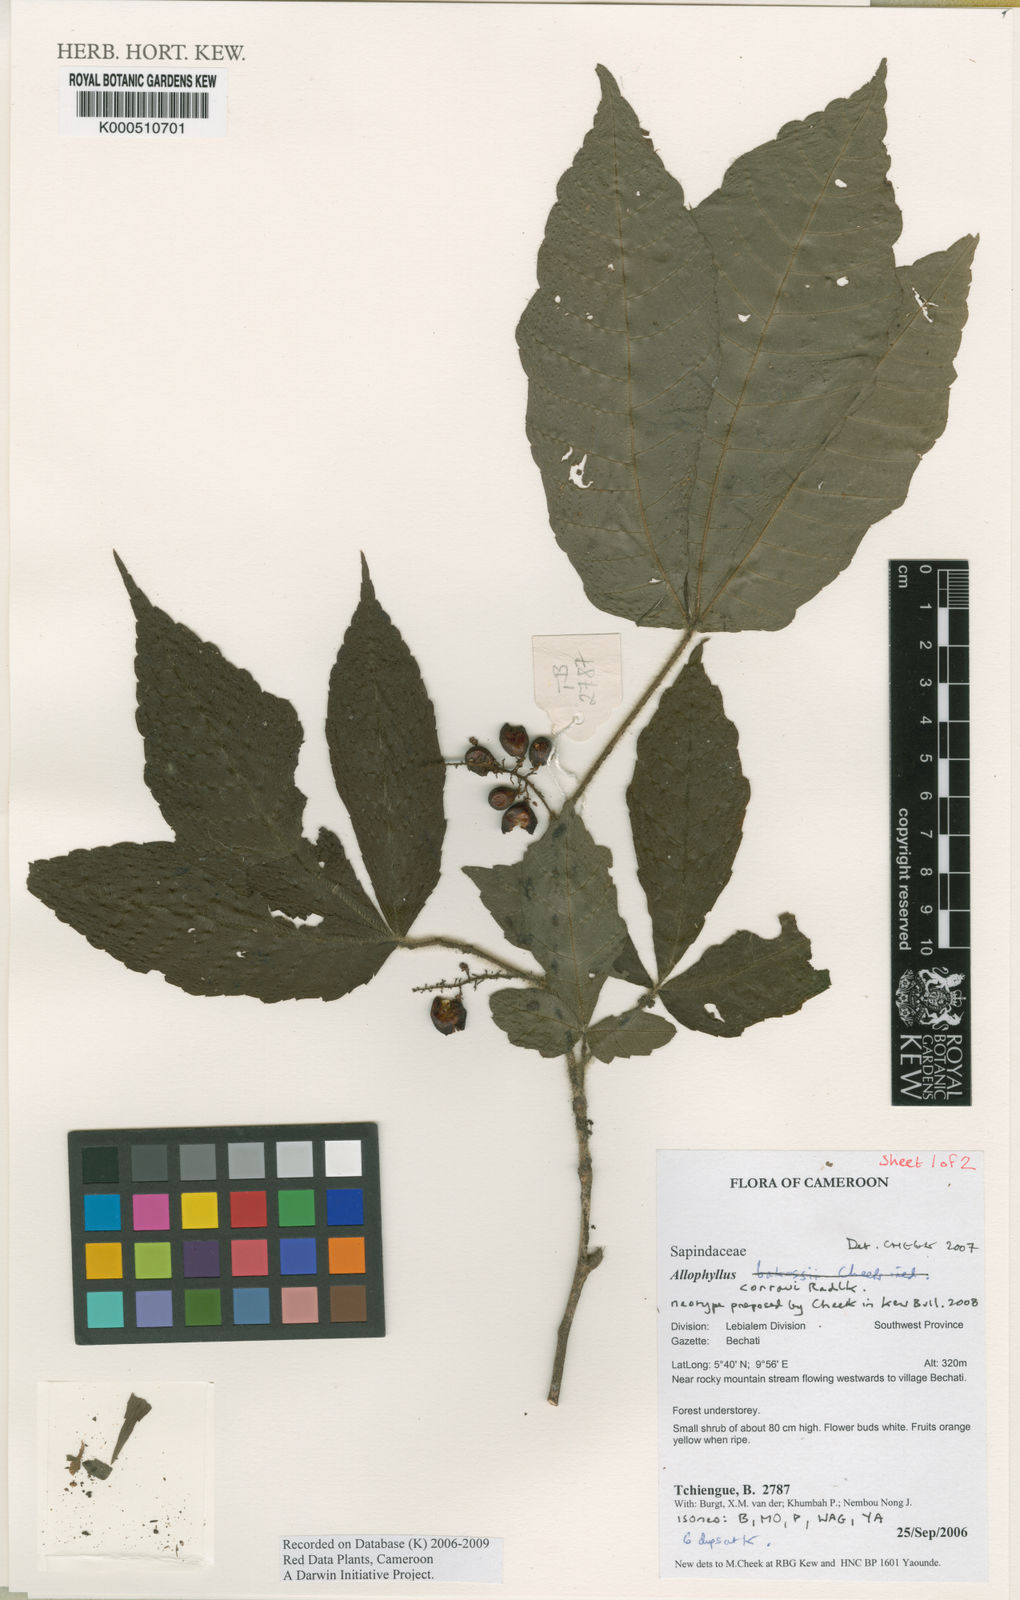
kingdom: Plantae
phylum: Tracheophyta
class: Magnoliopsida
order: Sapindales
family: Sapindaceae
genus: Allophylus
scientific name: Allophylus conraui
